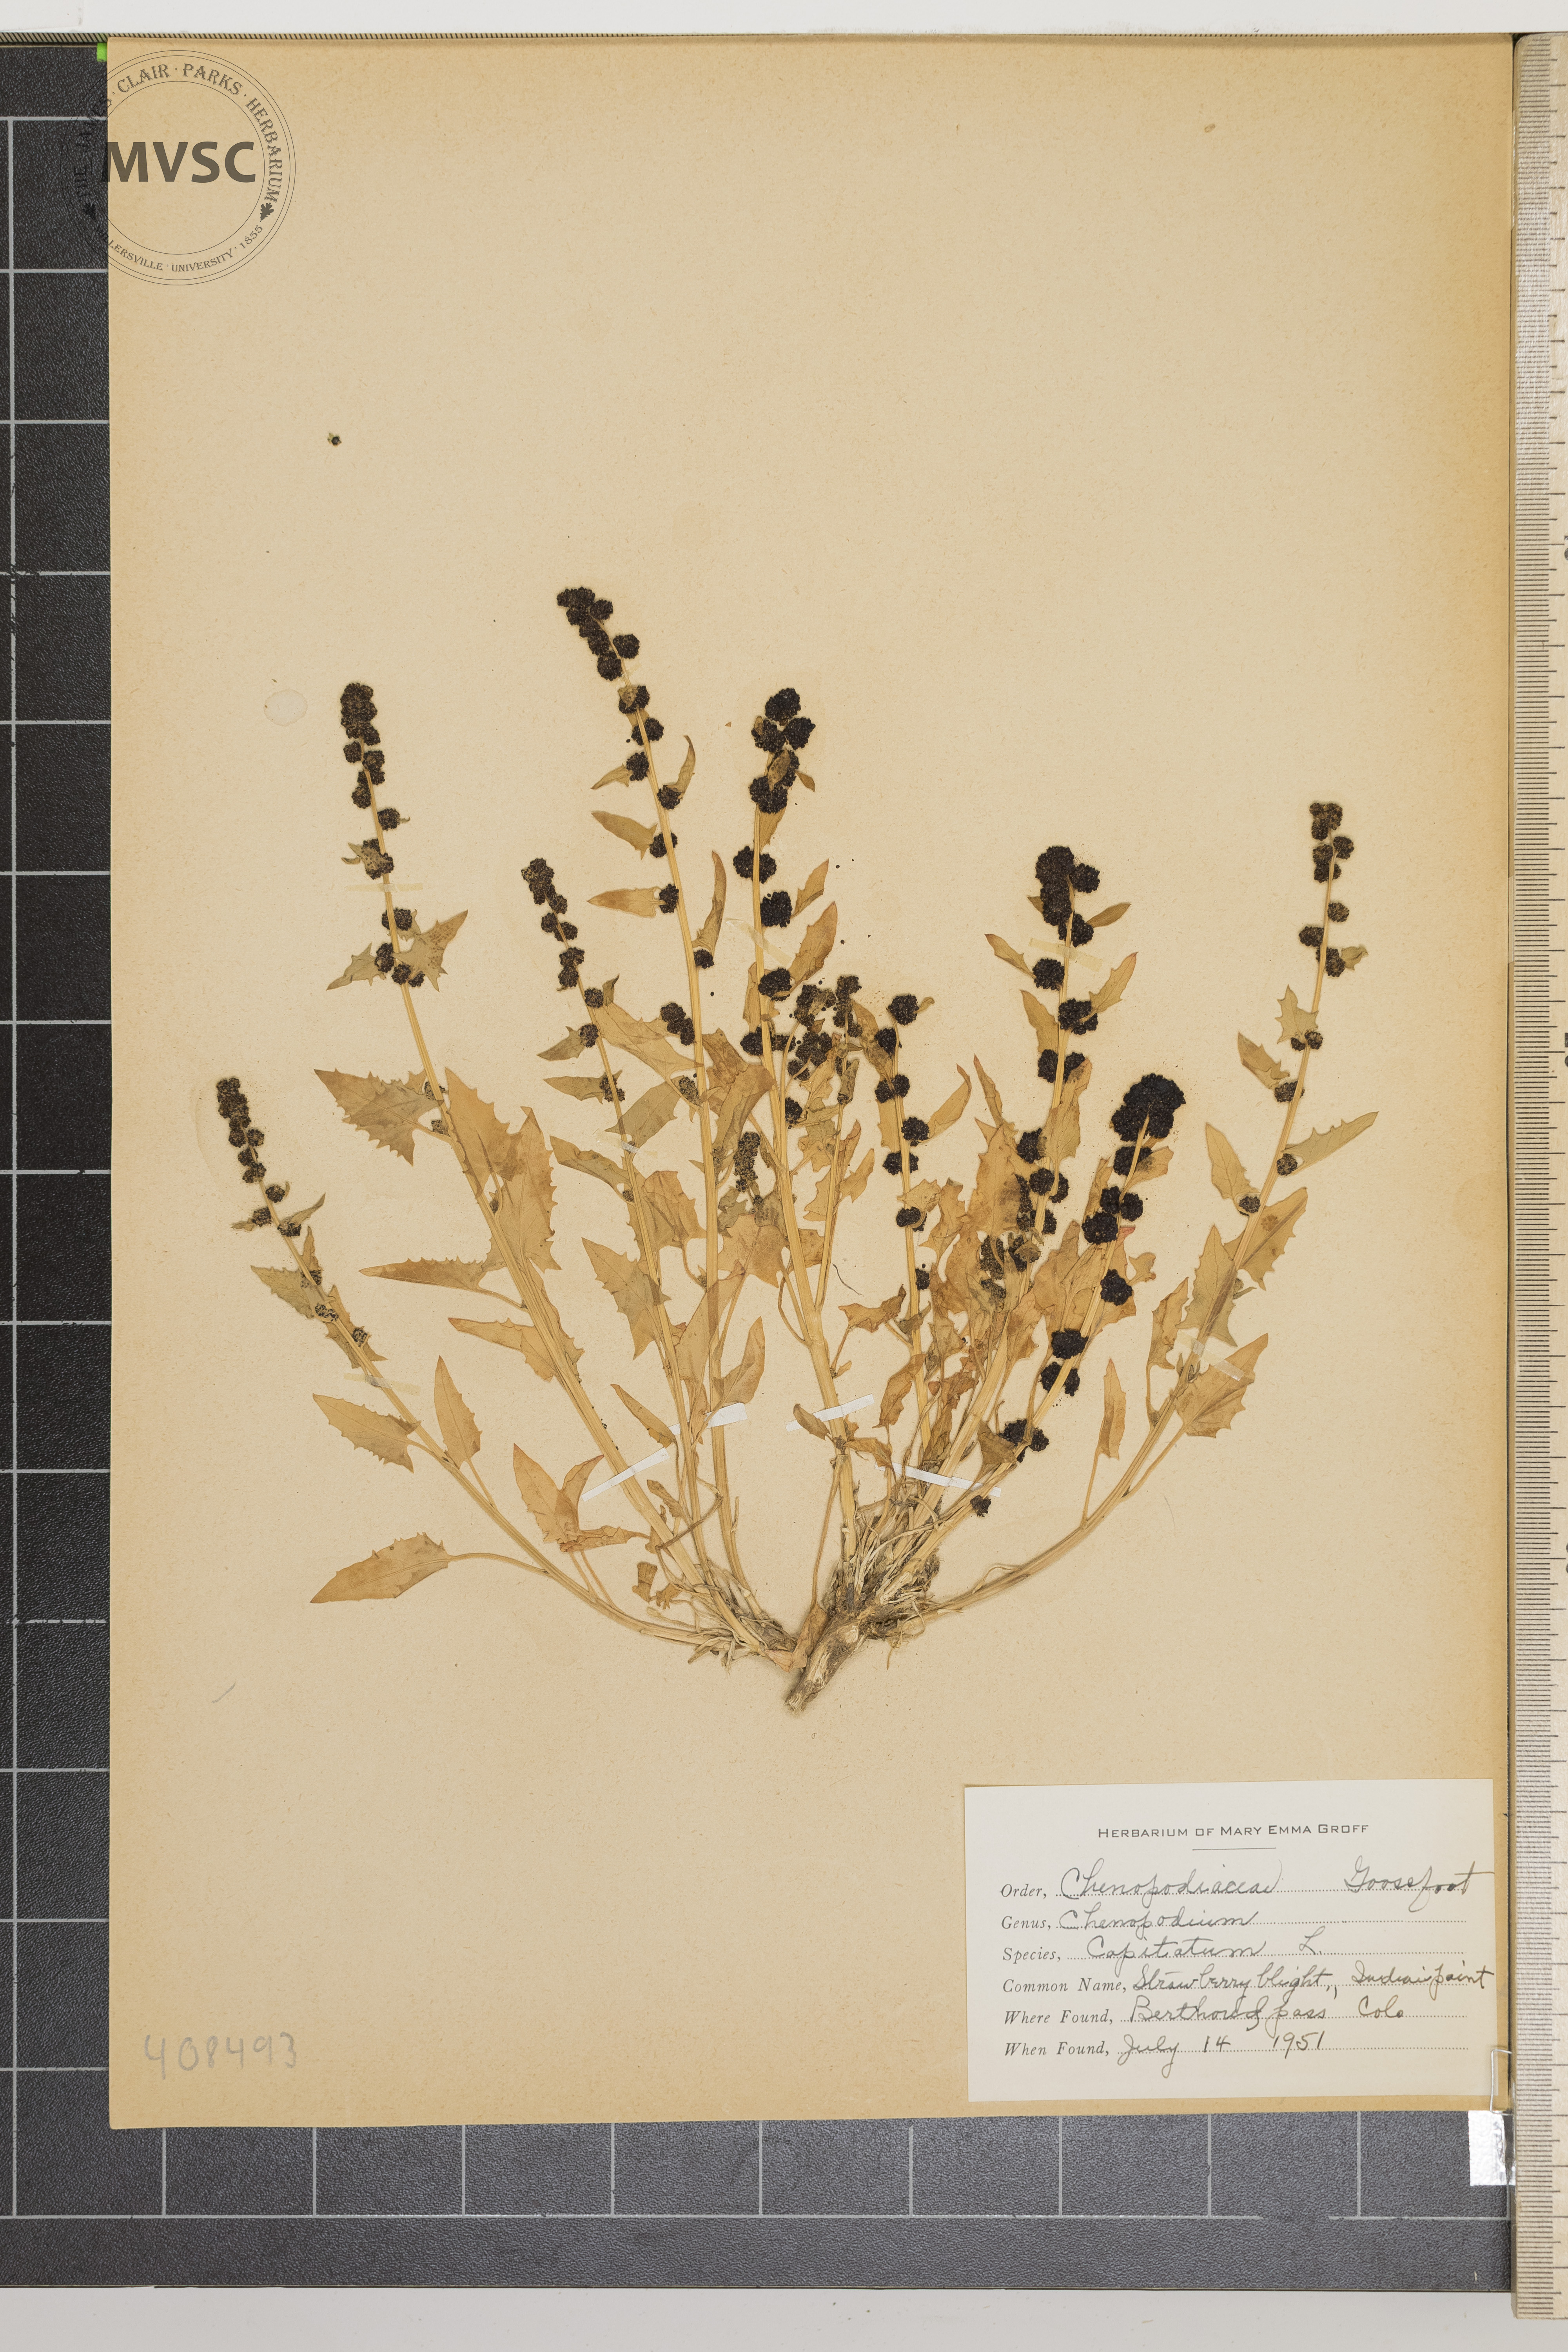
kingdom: Plantae
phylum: Tracheophyta
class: Magnoliopsida
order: Caryophyllales
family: Amaranthaceae
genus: Chenopodium
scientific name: Chenopodium capitatum
